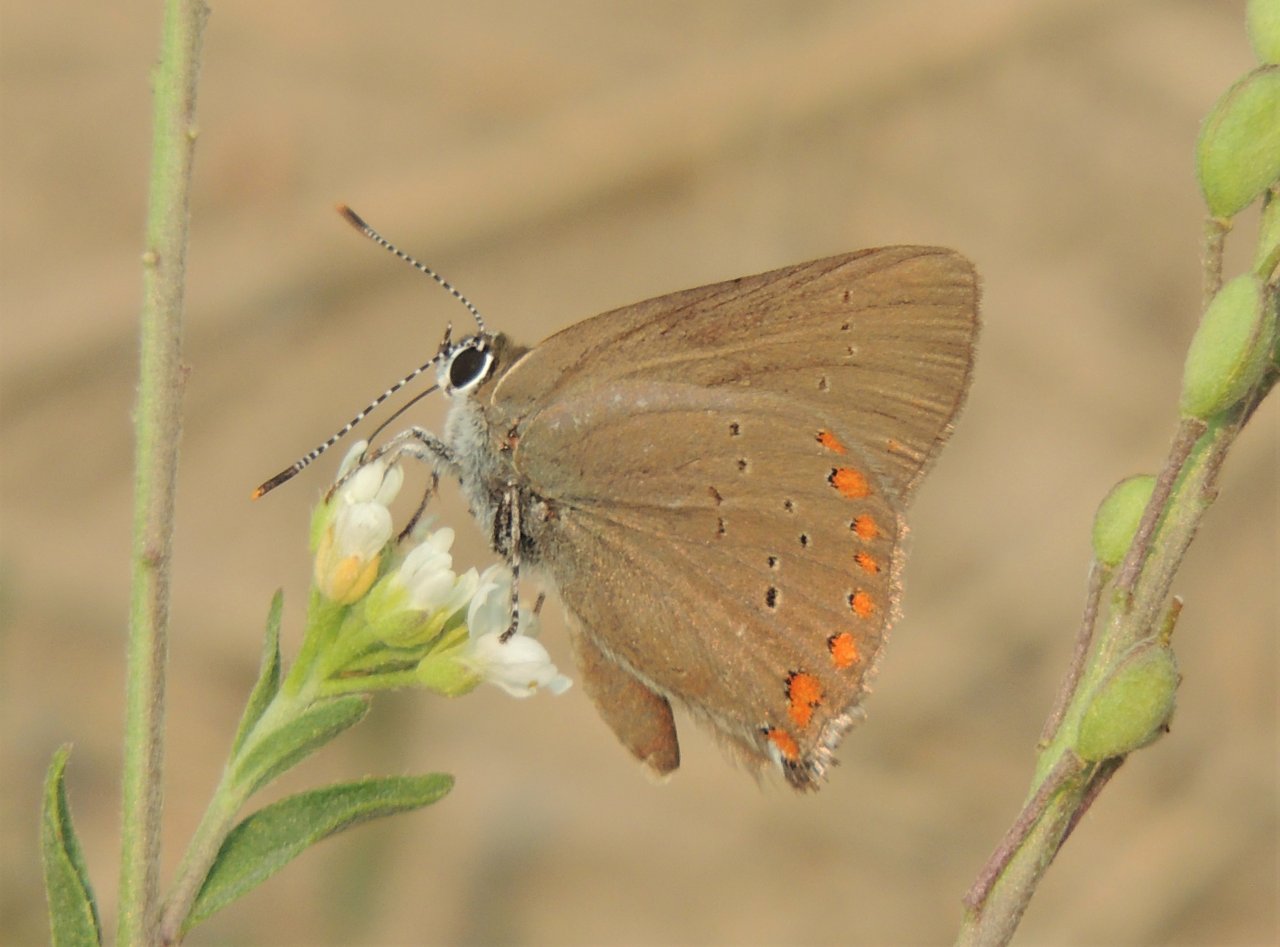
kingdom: Animalia
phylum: Arthropoda
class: Insecta
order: Lepidoptera
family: Lycaenidae
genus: Harkenclenus
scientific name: Harkenclenus titus
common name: Coral Hairstreak
